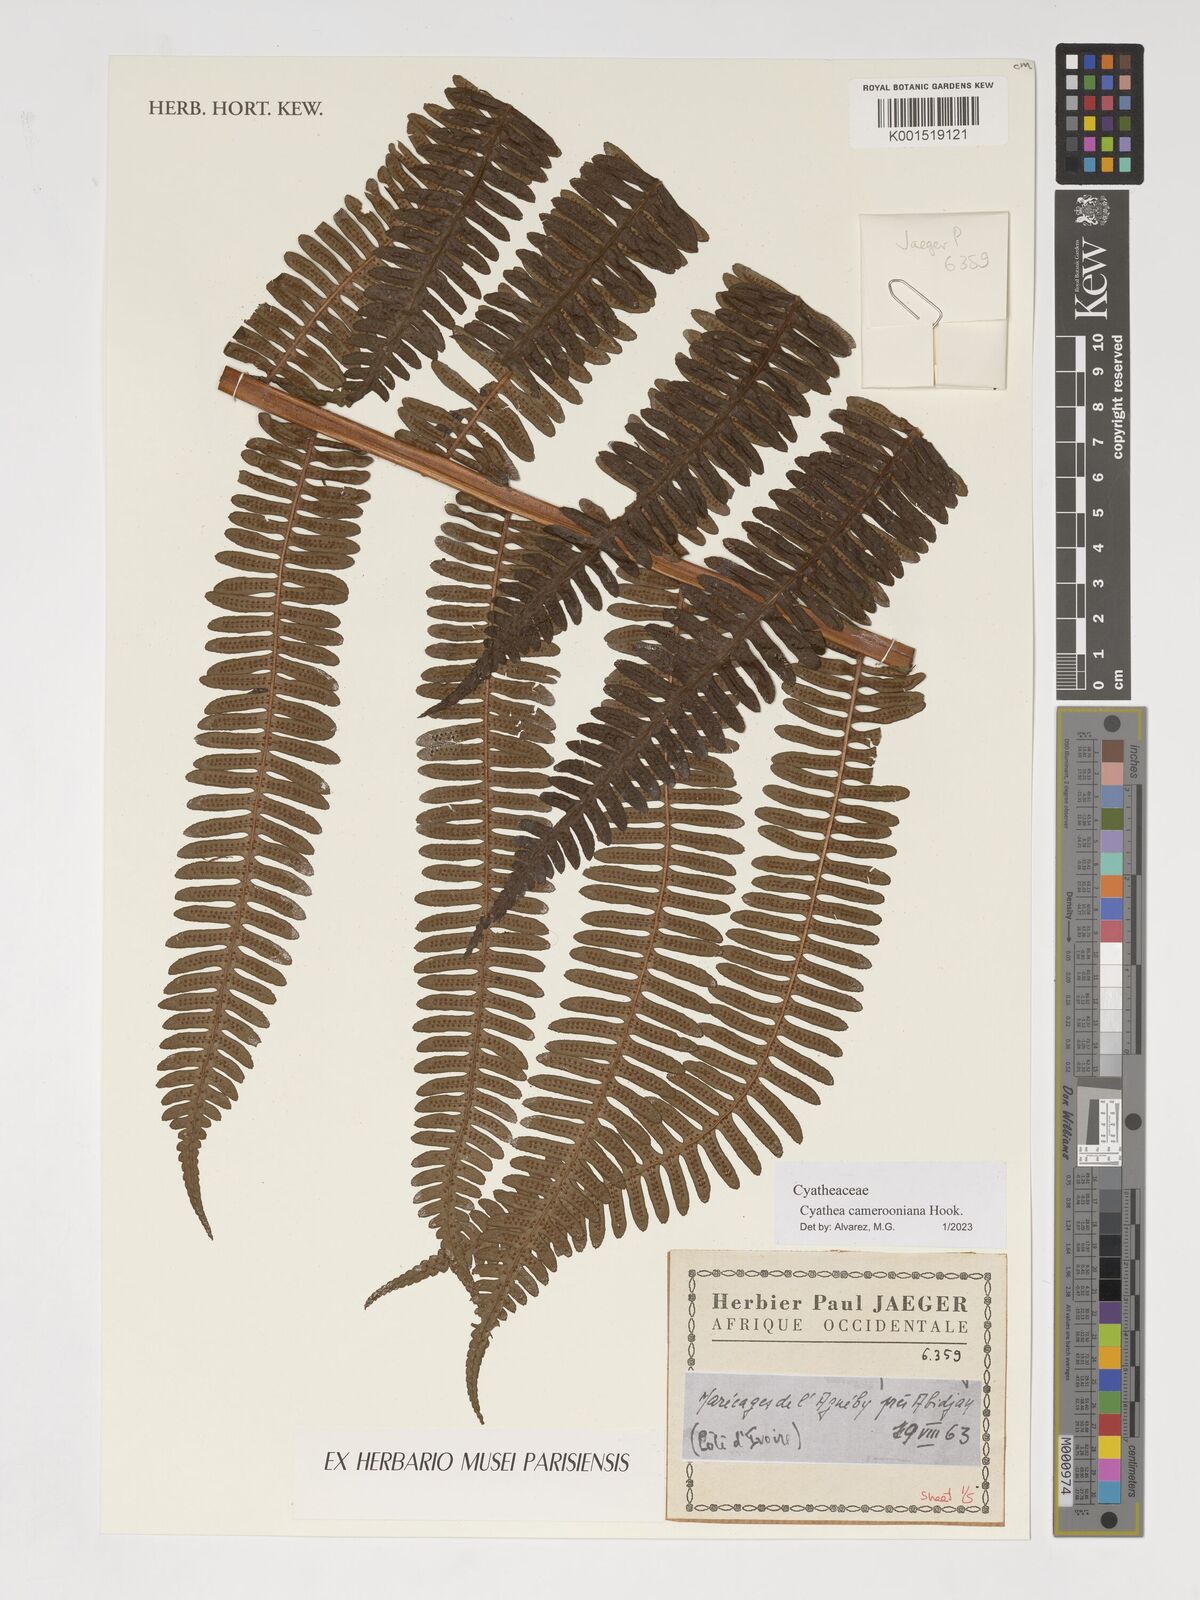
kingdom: Plantae
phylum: Tracheophyta
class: Polypodiopsida
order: Cyatheales
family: Cyatheaceae
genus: Alsophila
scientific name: Alsophila camerooniana
